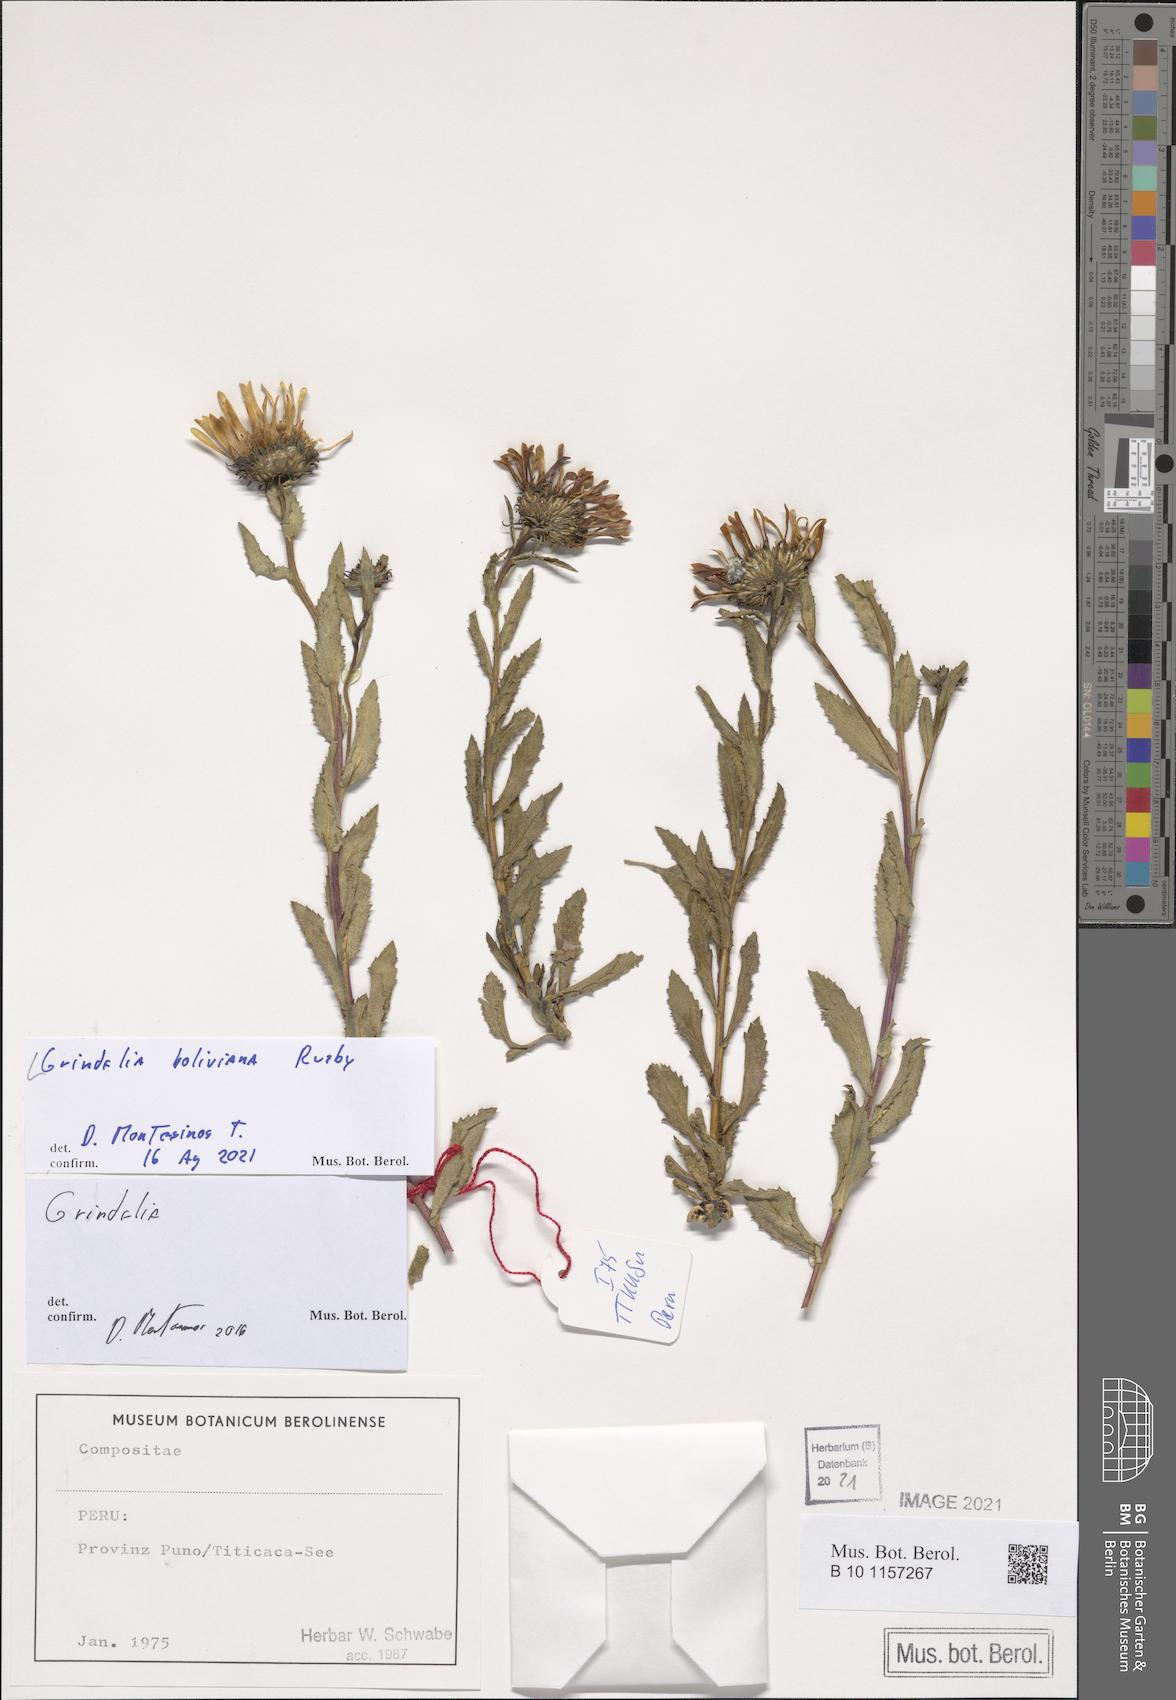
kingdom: Plantae
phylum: Tracheophyta
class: Magnoliopsida
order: Asterales
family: Asteraceae
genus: Grindelia
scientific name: Grindelia boliviana
